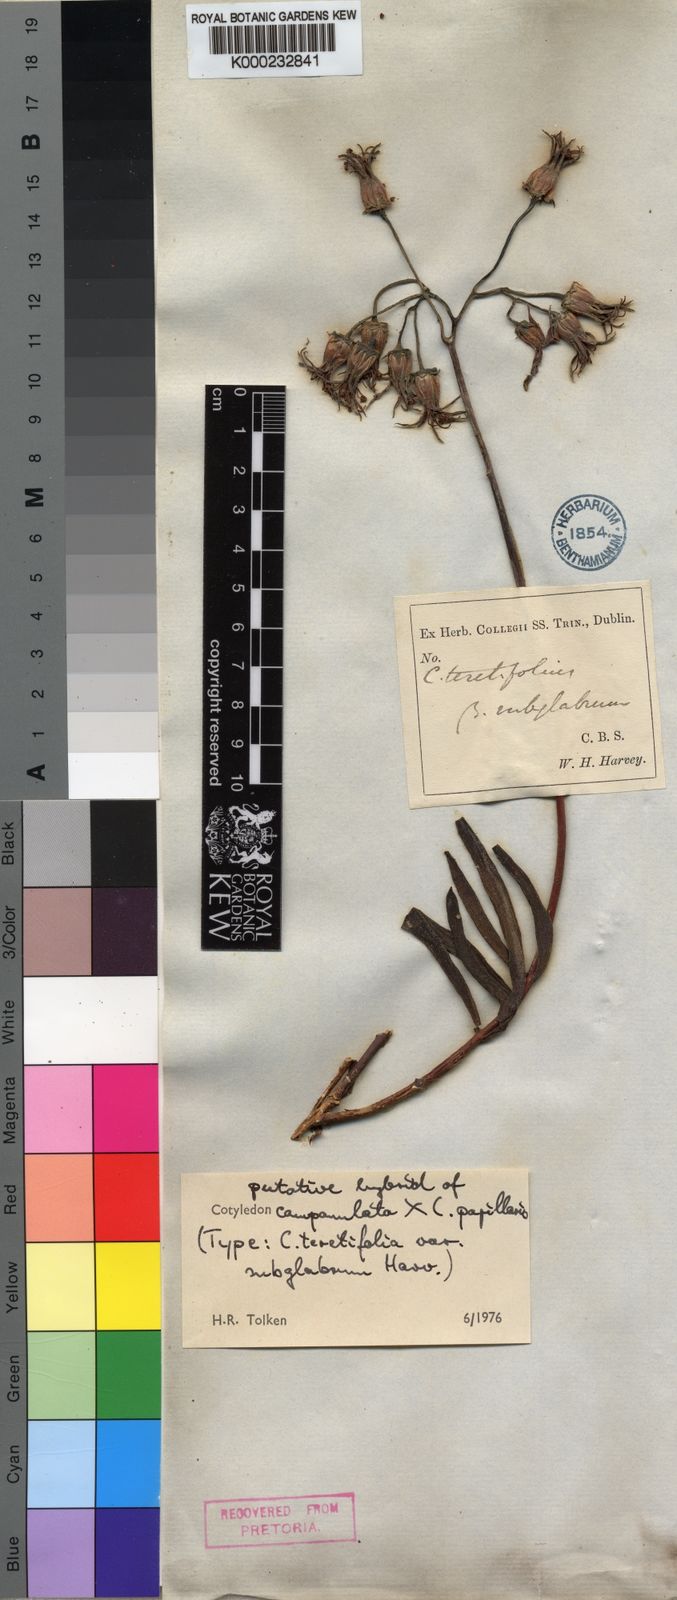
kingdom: Plantae
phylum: Tracheophyta
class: Magnoliopsida
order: Saxifragales
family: Crassulaceae
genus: Cotyledon
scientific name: Cotyledon campanulata
